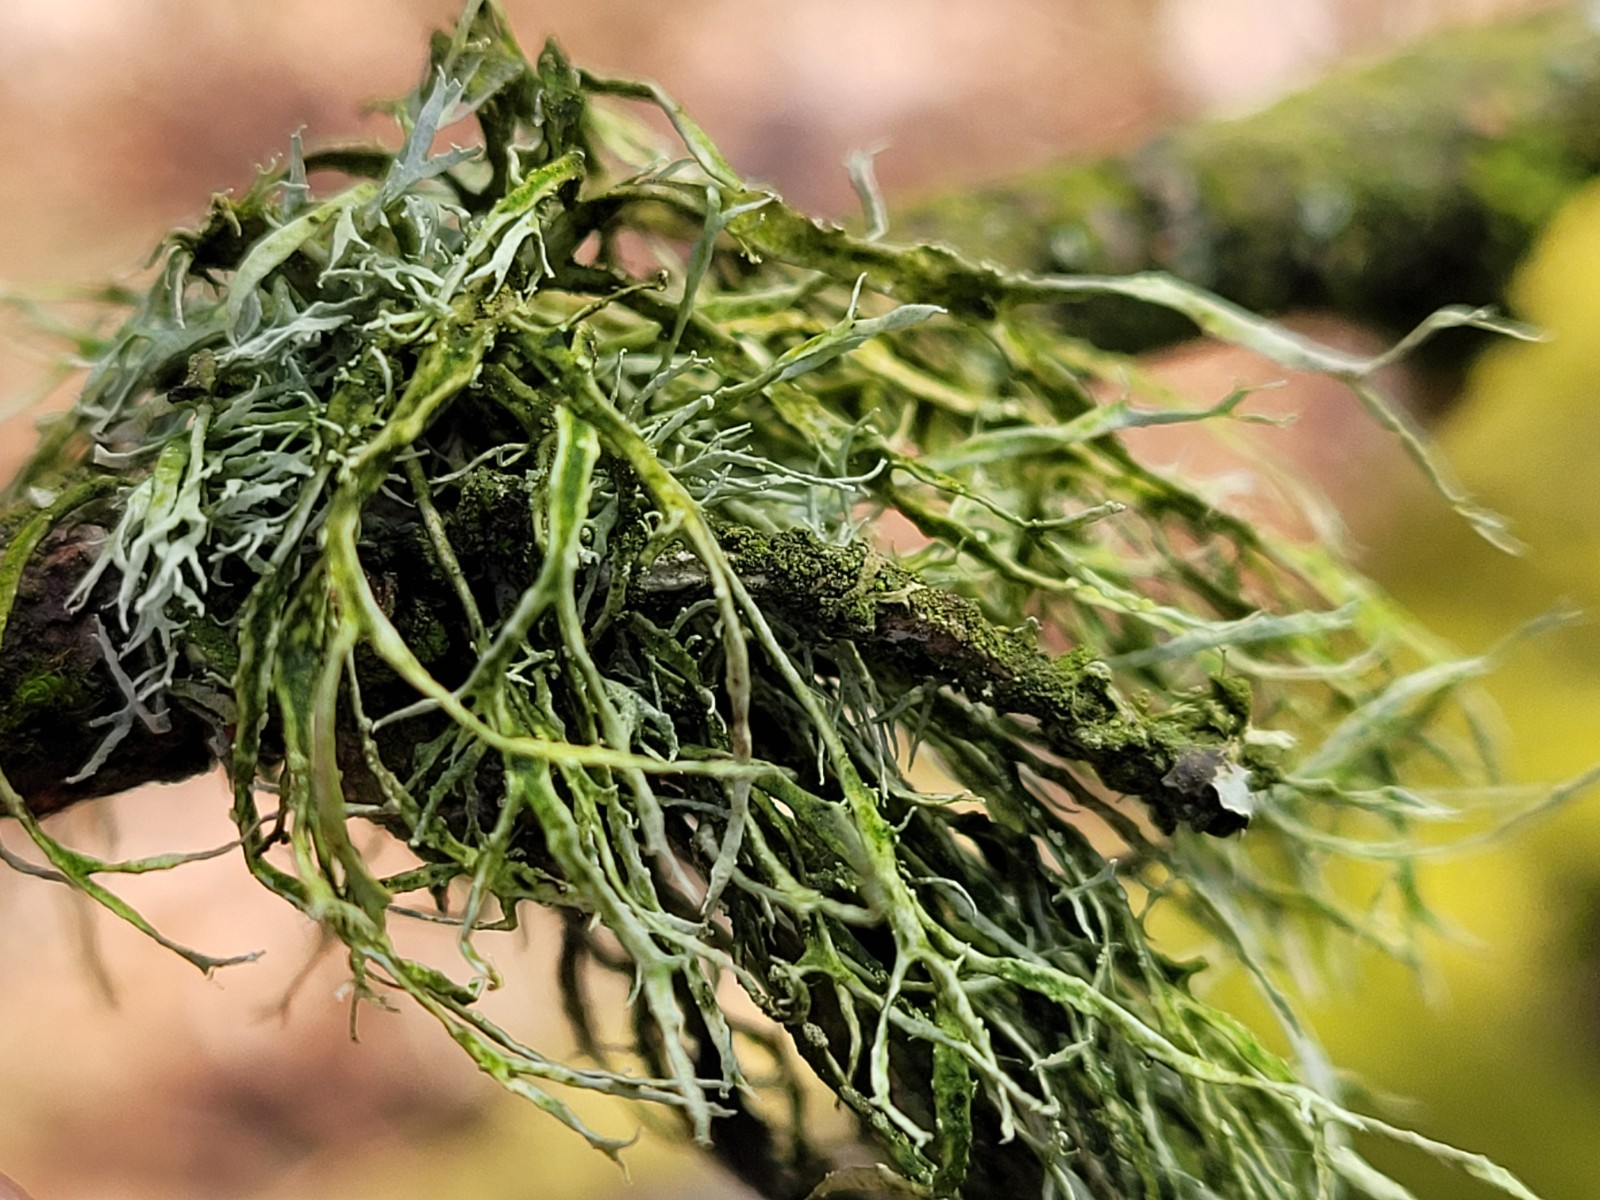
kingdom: Fungi
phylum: Ascomycota
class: Lecanoromycetes
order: Lecanorales
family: Ramalinaceae
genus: Ramalina
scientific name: Ramalina farinacea
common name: melet grenlav
